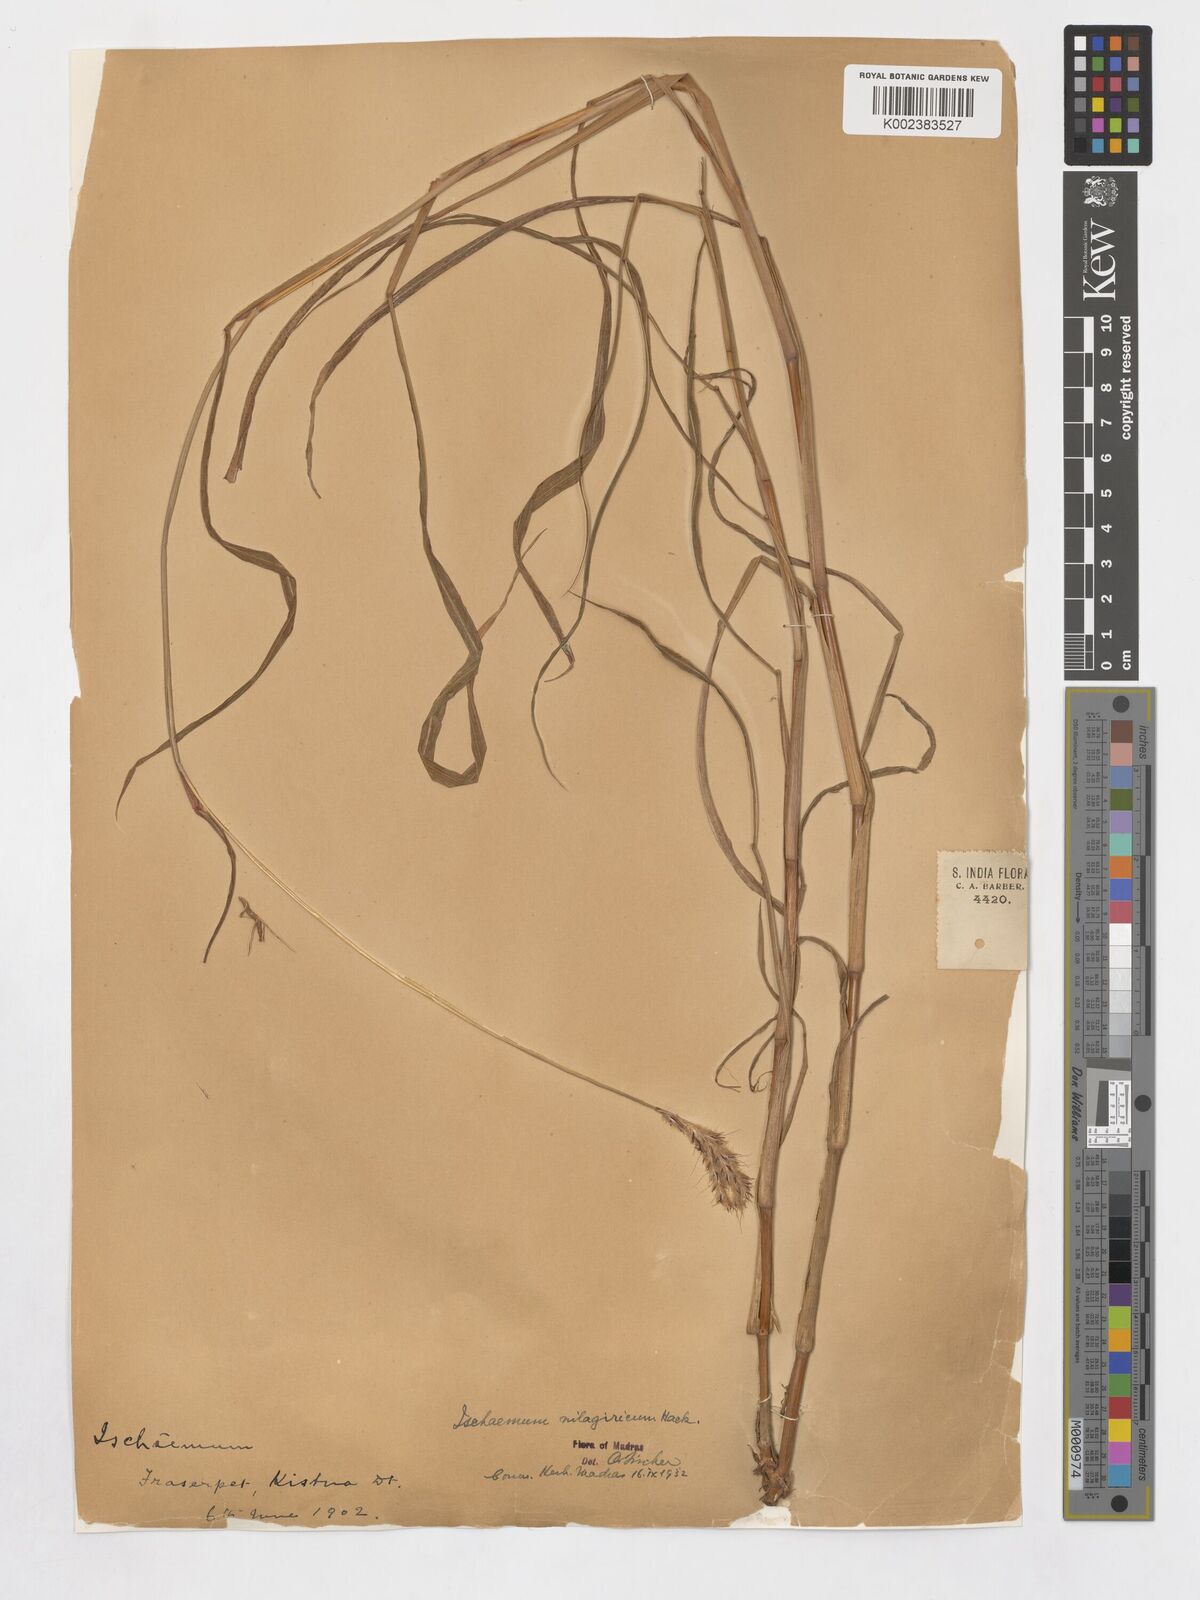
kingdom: Plantae
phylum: Tracheophyta
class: Liliopsida
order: Poales
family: Poaceae
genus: Ischaemum
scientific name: Ischaemum polystachyum
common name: Paddle grass
